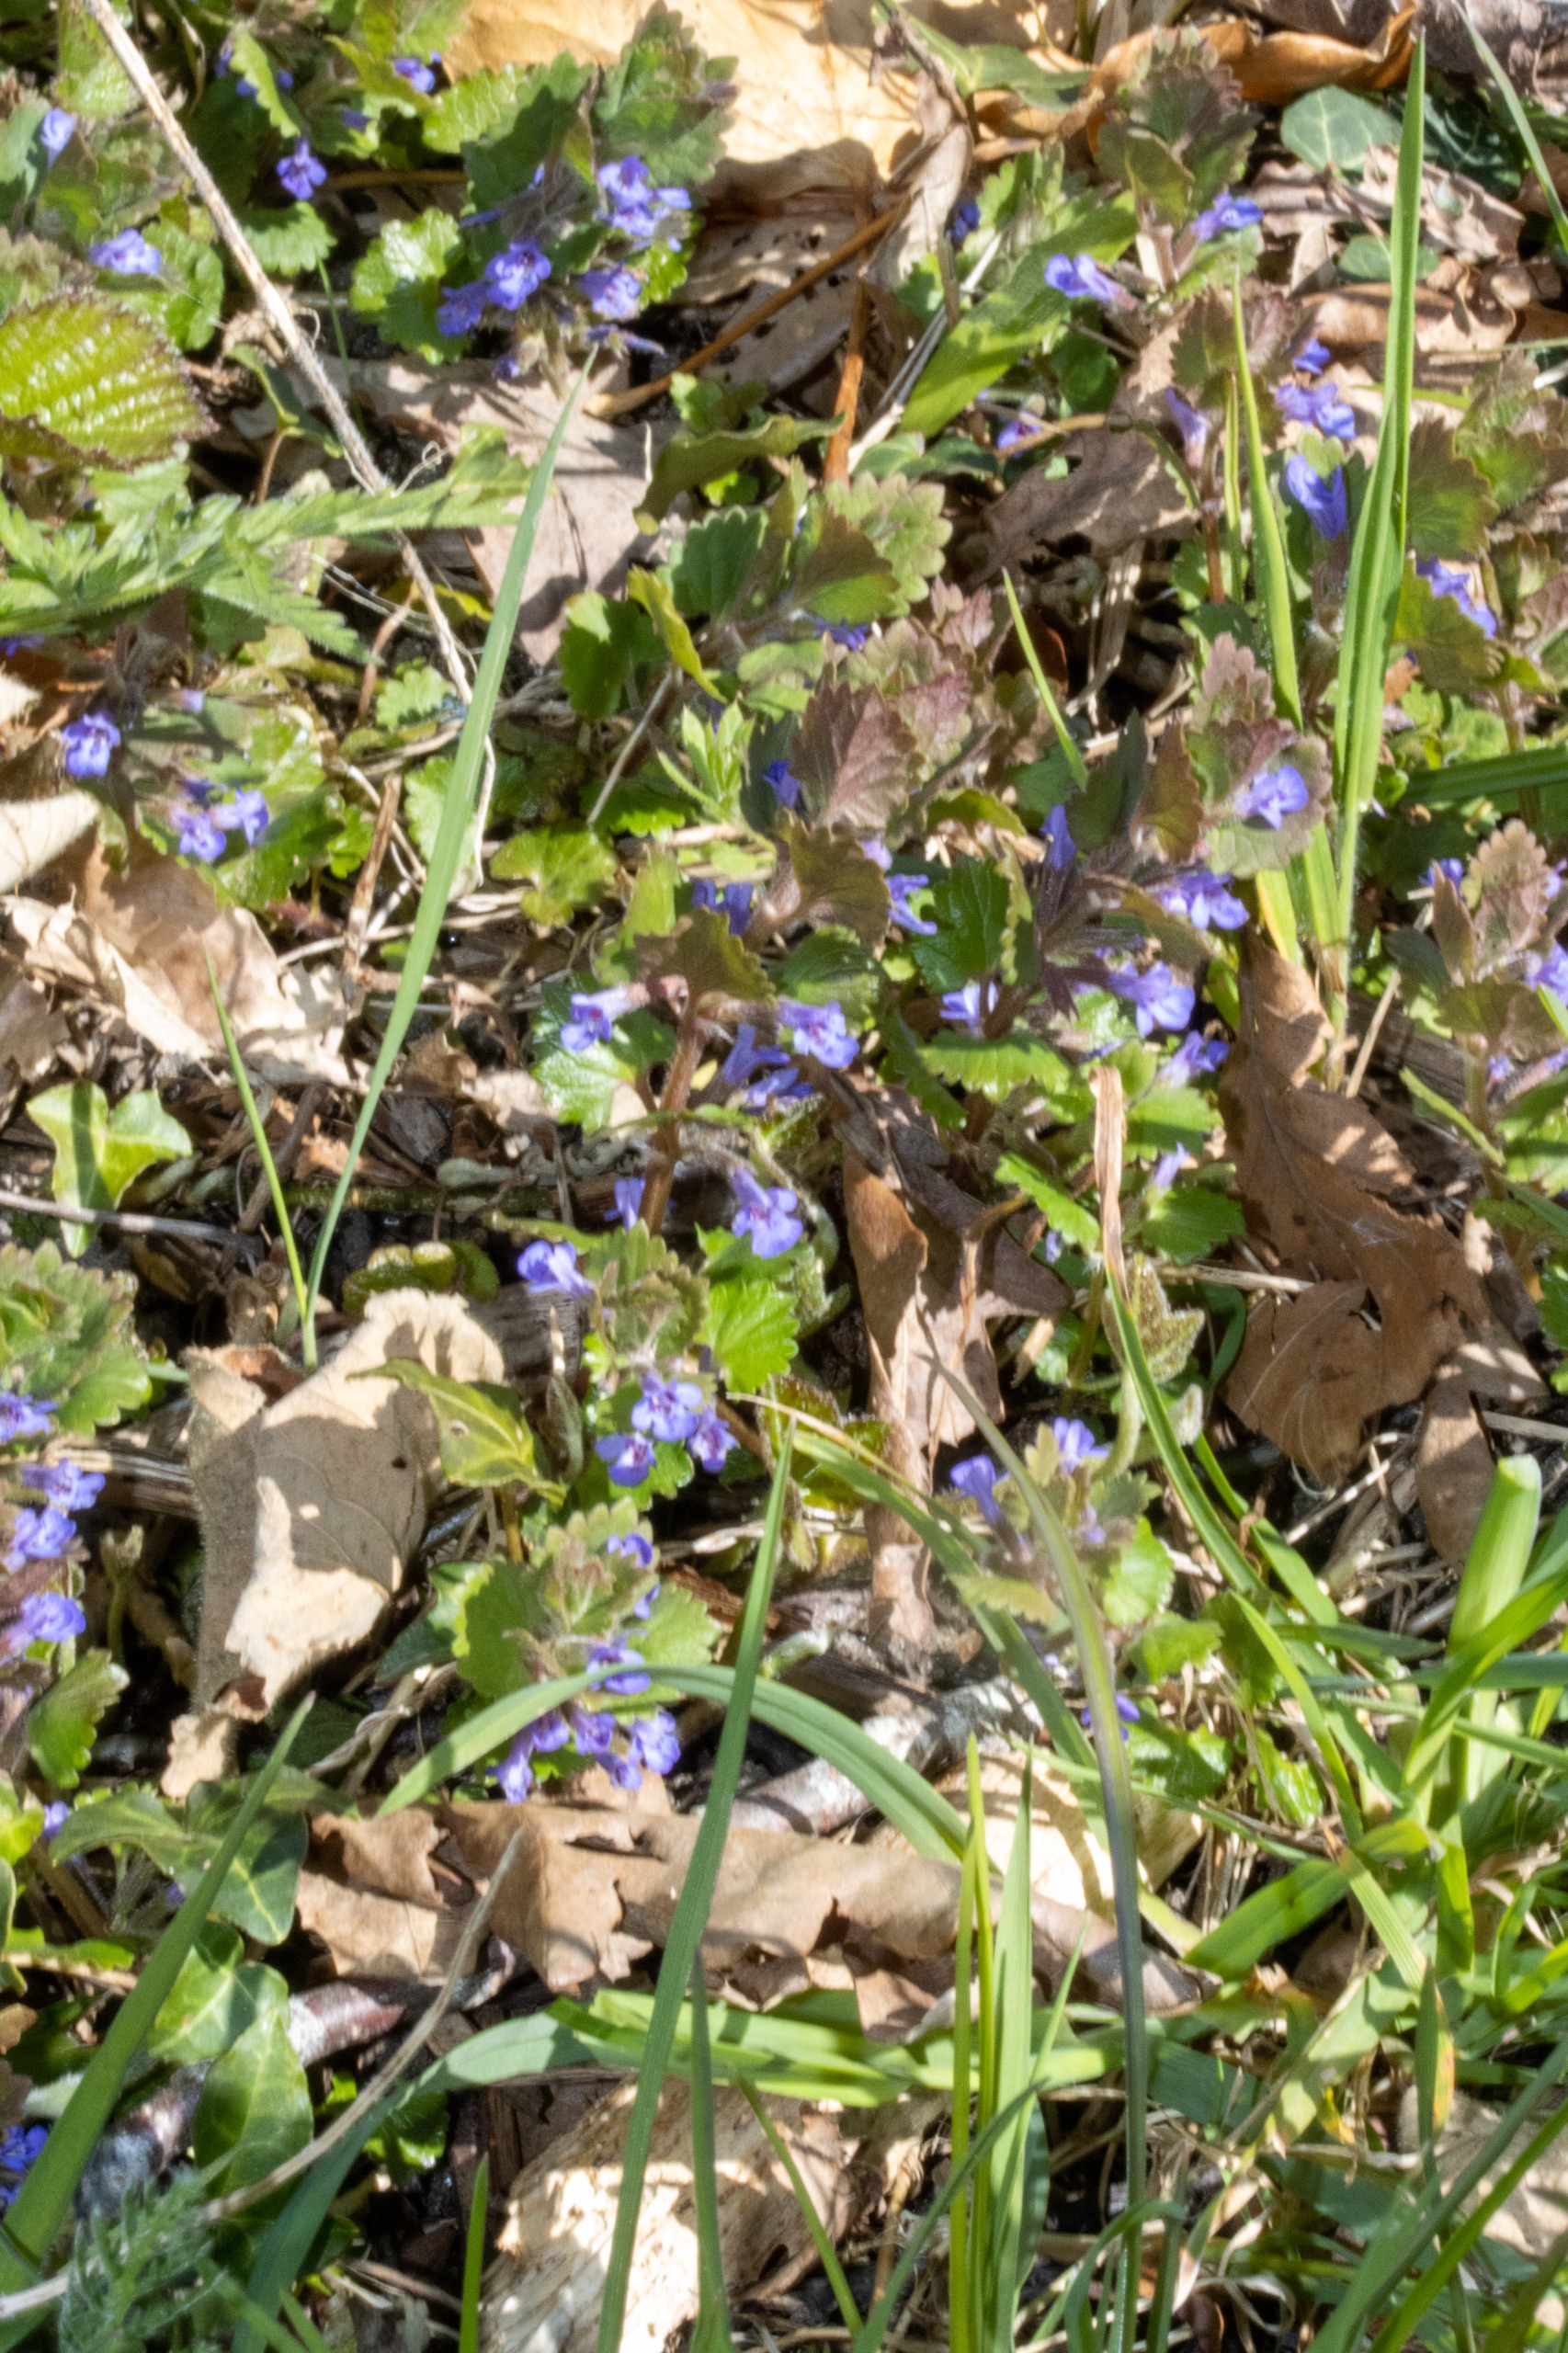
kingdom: Plantae
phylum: Tracheophyta
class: Magnoliopsida
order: Lamiales
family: Lamiaceae
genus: Glechoma
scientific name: Glechoma hederacea
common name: Korsknap
